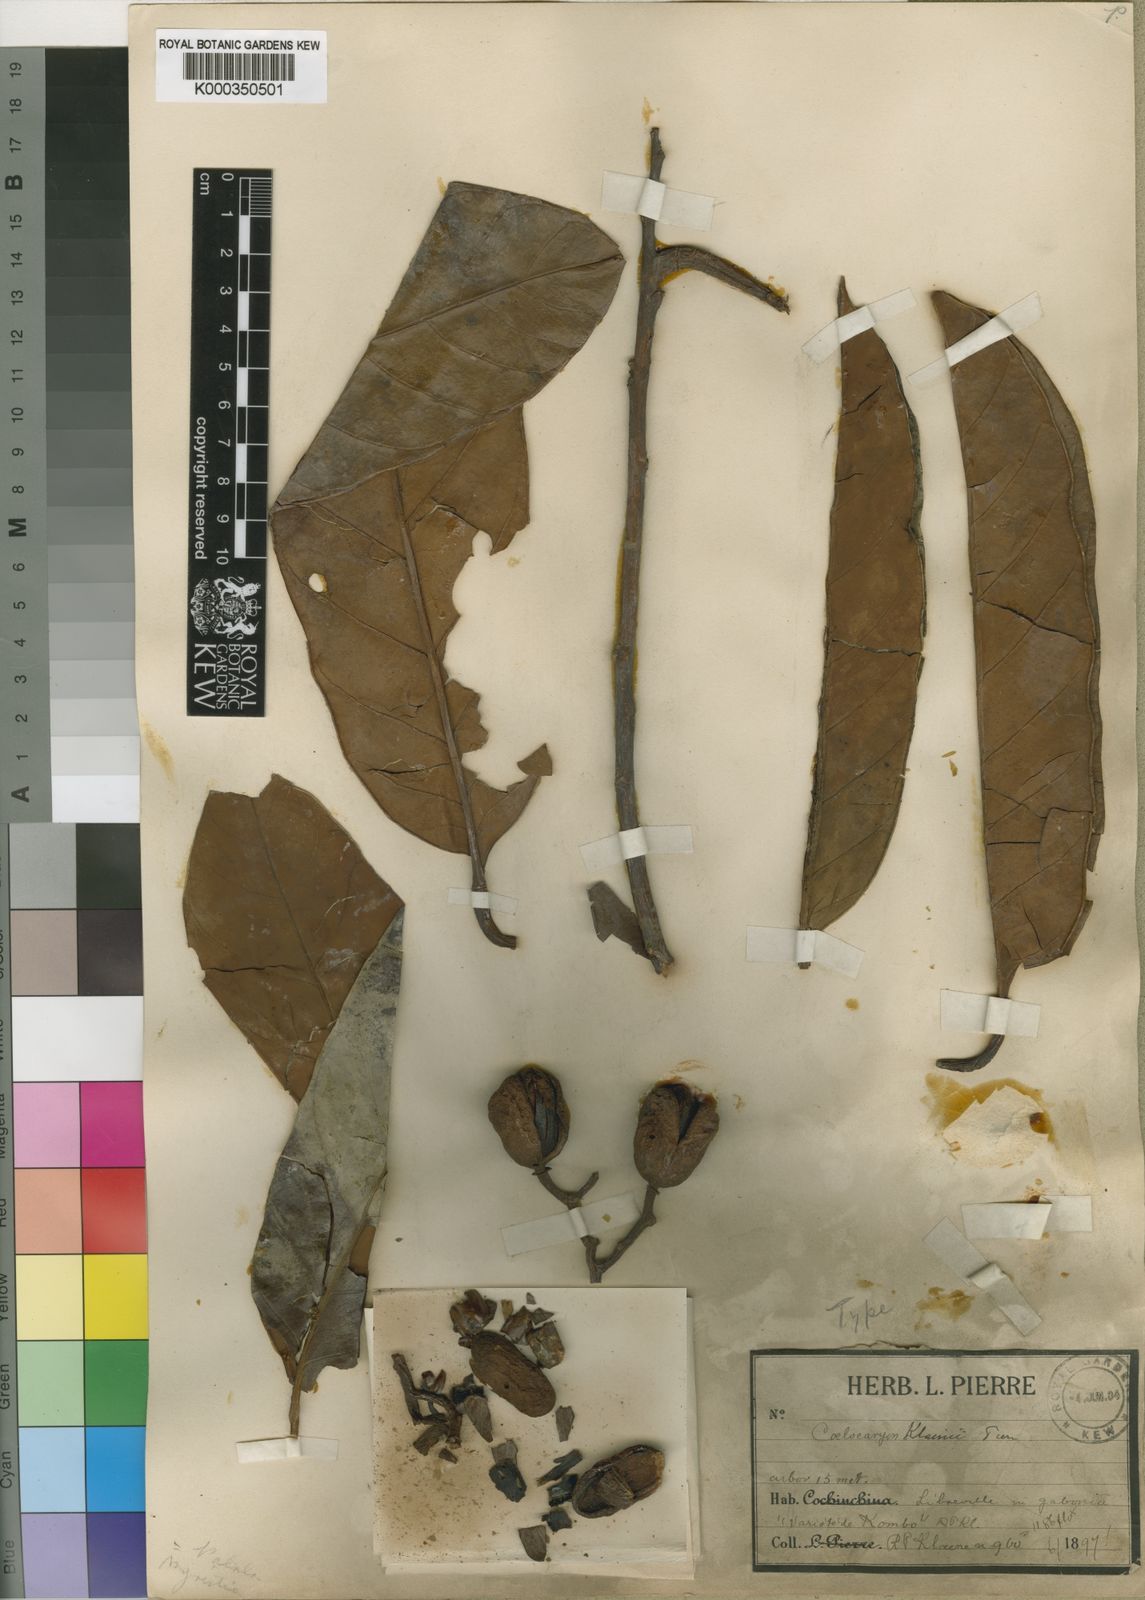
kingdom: Plantae
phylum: Tracheophyta
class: Magnoliopsida
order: Magnoliales
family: Myristicaceae
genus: Coelocaryon
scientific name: Coelocaryon preussii
